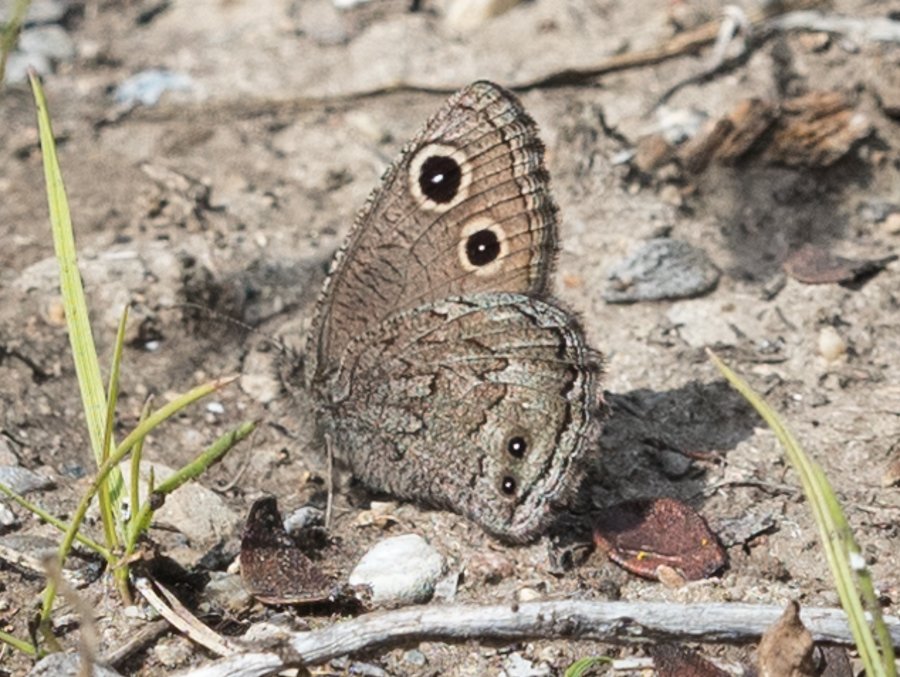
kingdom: Animalia
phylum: Arthropoda
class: Insecta
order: Lepidoptera
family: Nymphalidae
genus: Cercyonis
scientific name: Cercyonis oetus
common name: Small Wood-Nymph
